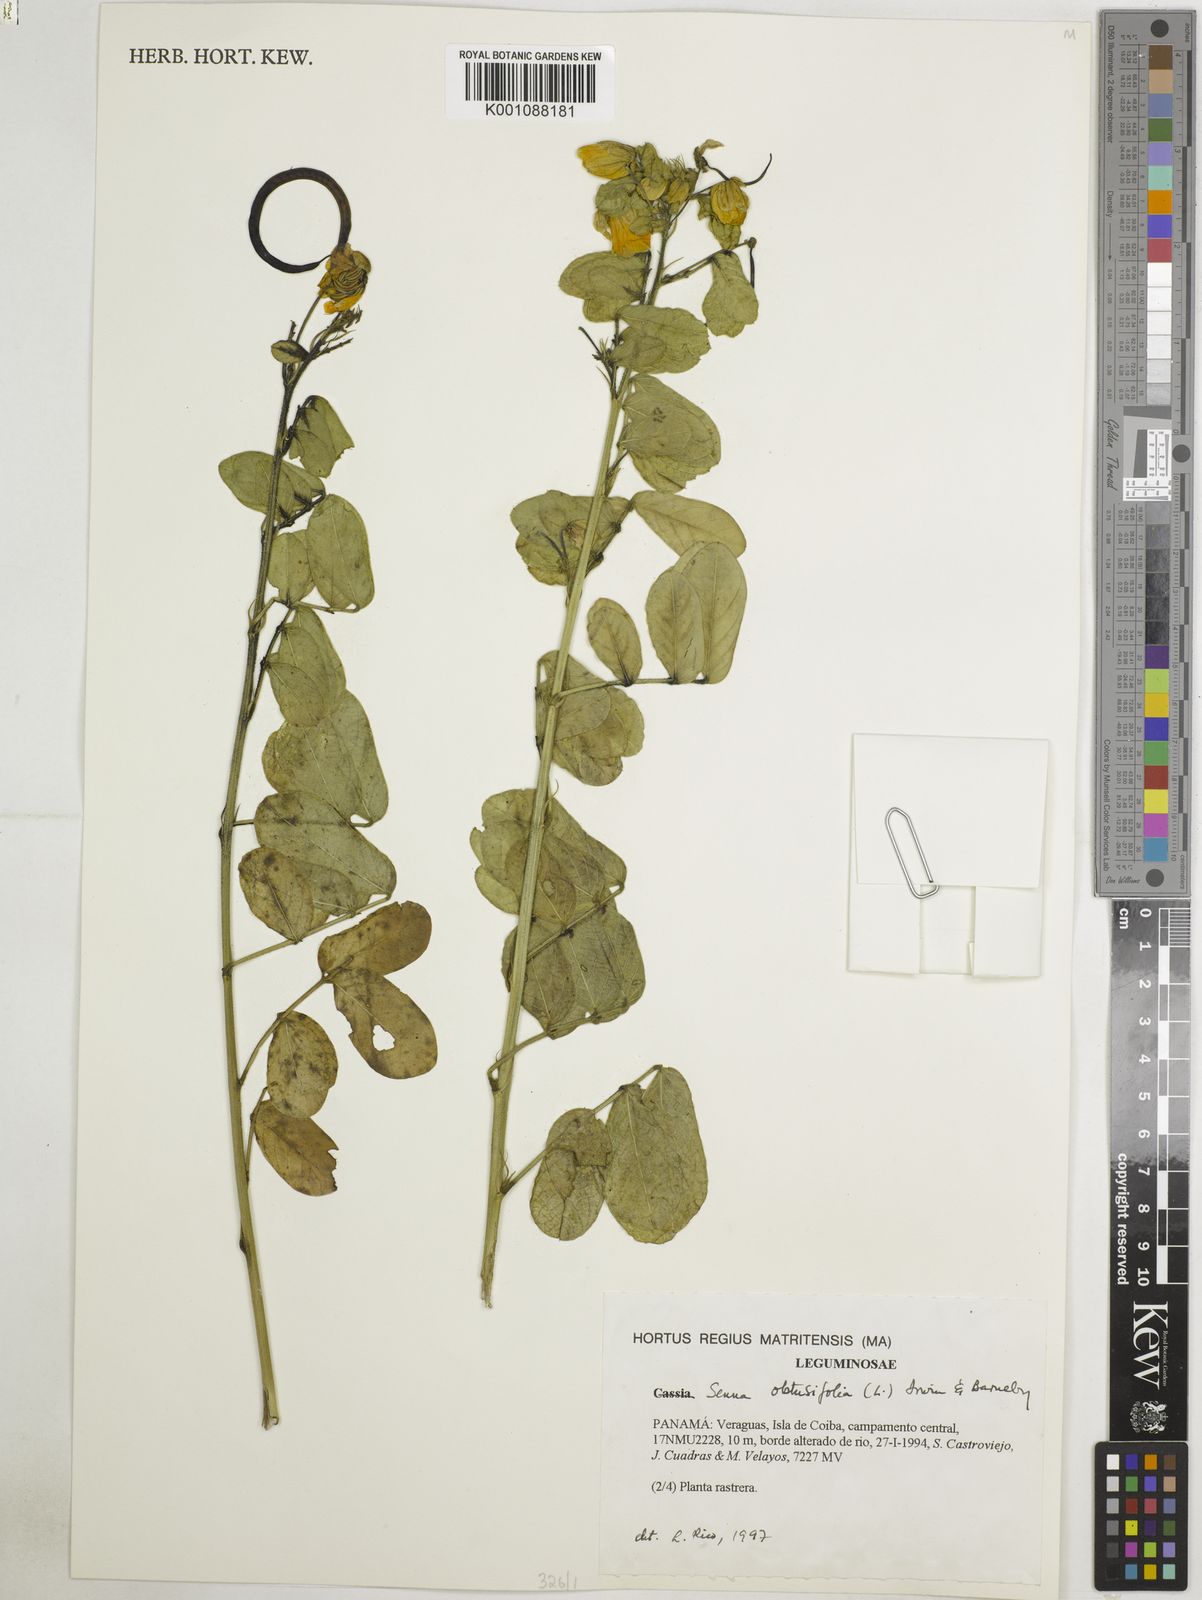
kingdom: Plantae
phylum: Tracheophyta
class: Magnoliopsida
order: Fabales
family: Fabaceae
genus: Senna
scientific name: Senna obtusifolia
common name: Java-bean
